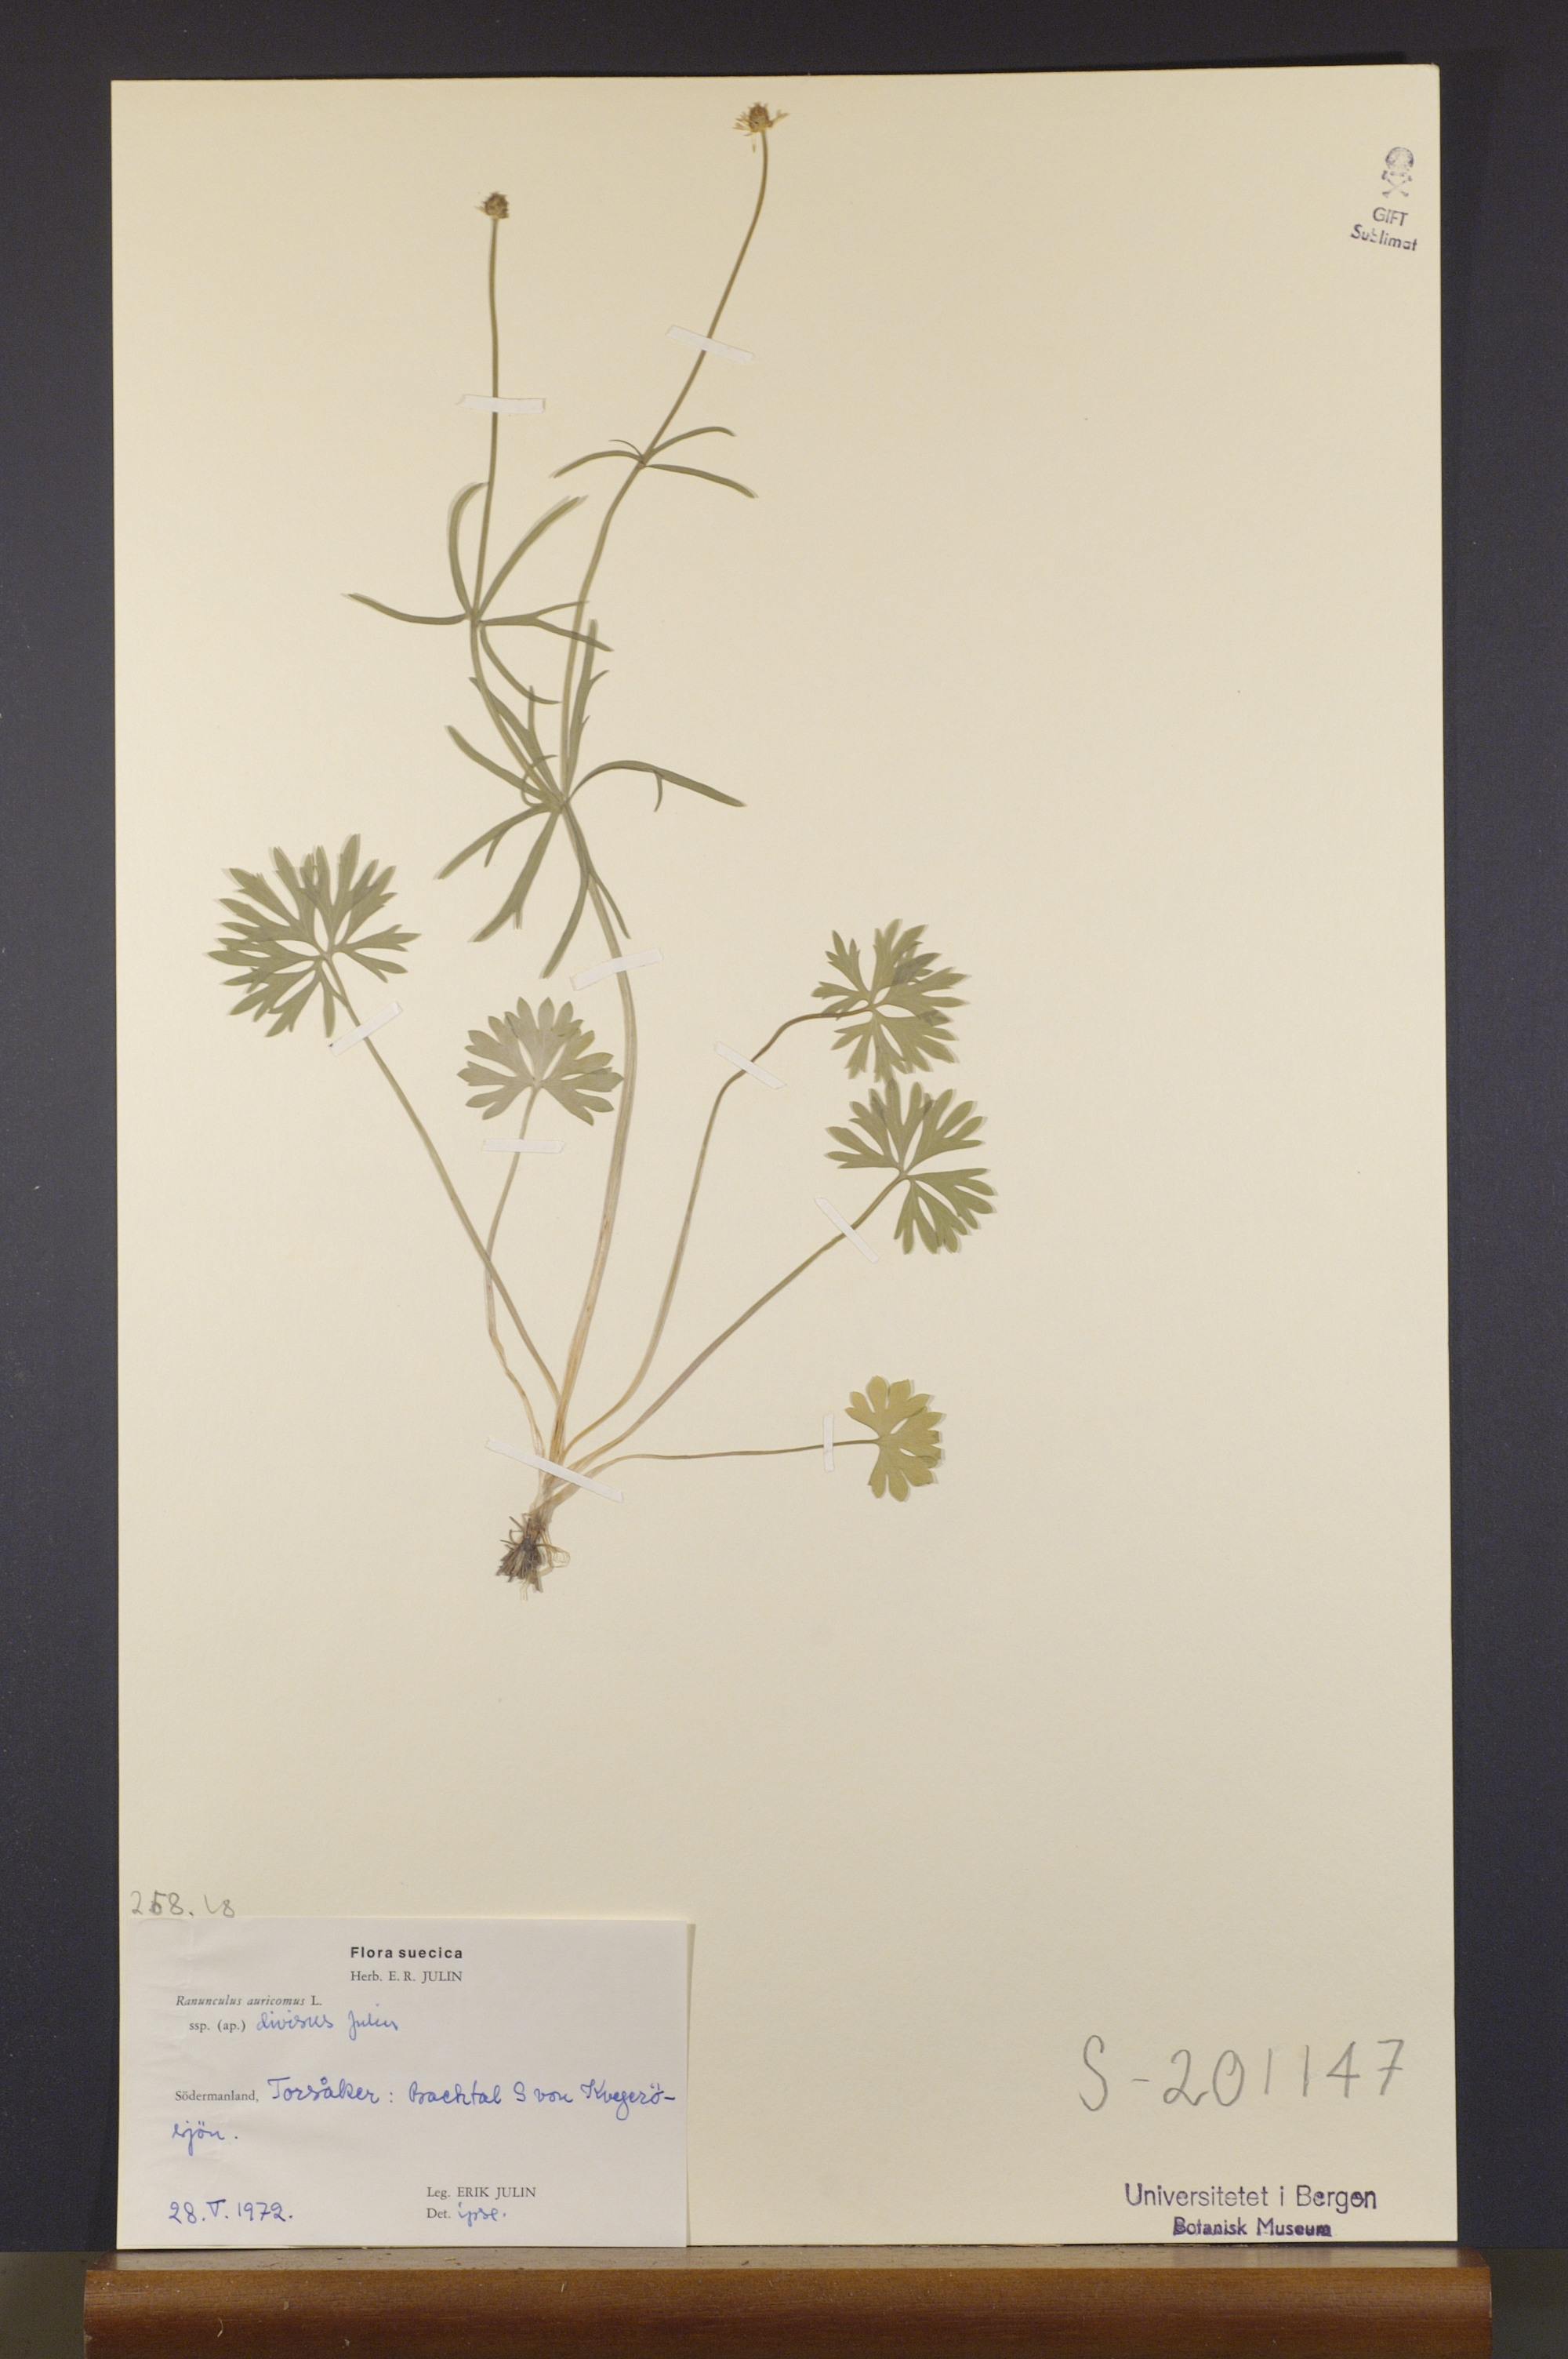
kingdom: Plantae
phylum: Tracheophyta
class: Magnoliopsida
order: Ranunculales
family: Ranunculaceae
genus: Ranunculus
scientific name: Ranunculus auricomus
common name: Goldilocks buttercup
